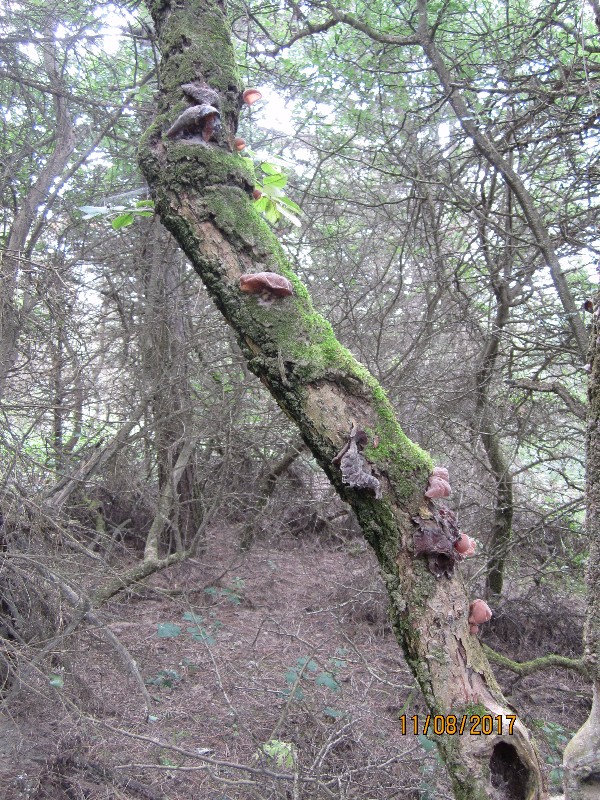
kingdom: Fungi
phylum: Basidiomycota
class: Agaricomycetes
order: Auriculariales
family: Auriculariaceae
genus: Auricularia
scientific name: Auricularia auricula-judae
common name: almindelig judasøre
